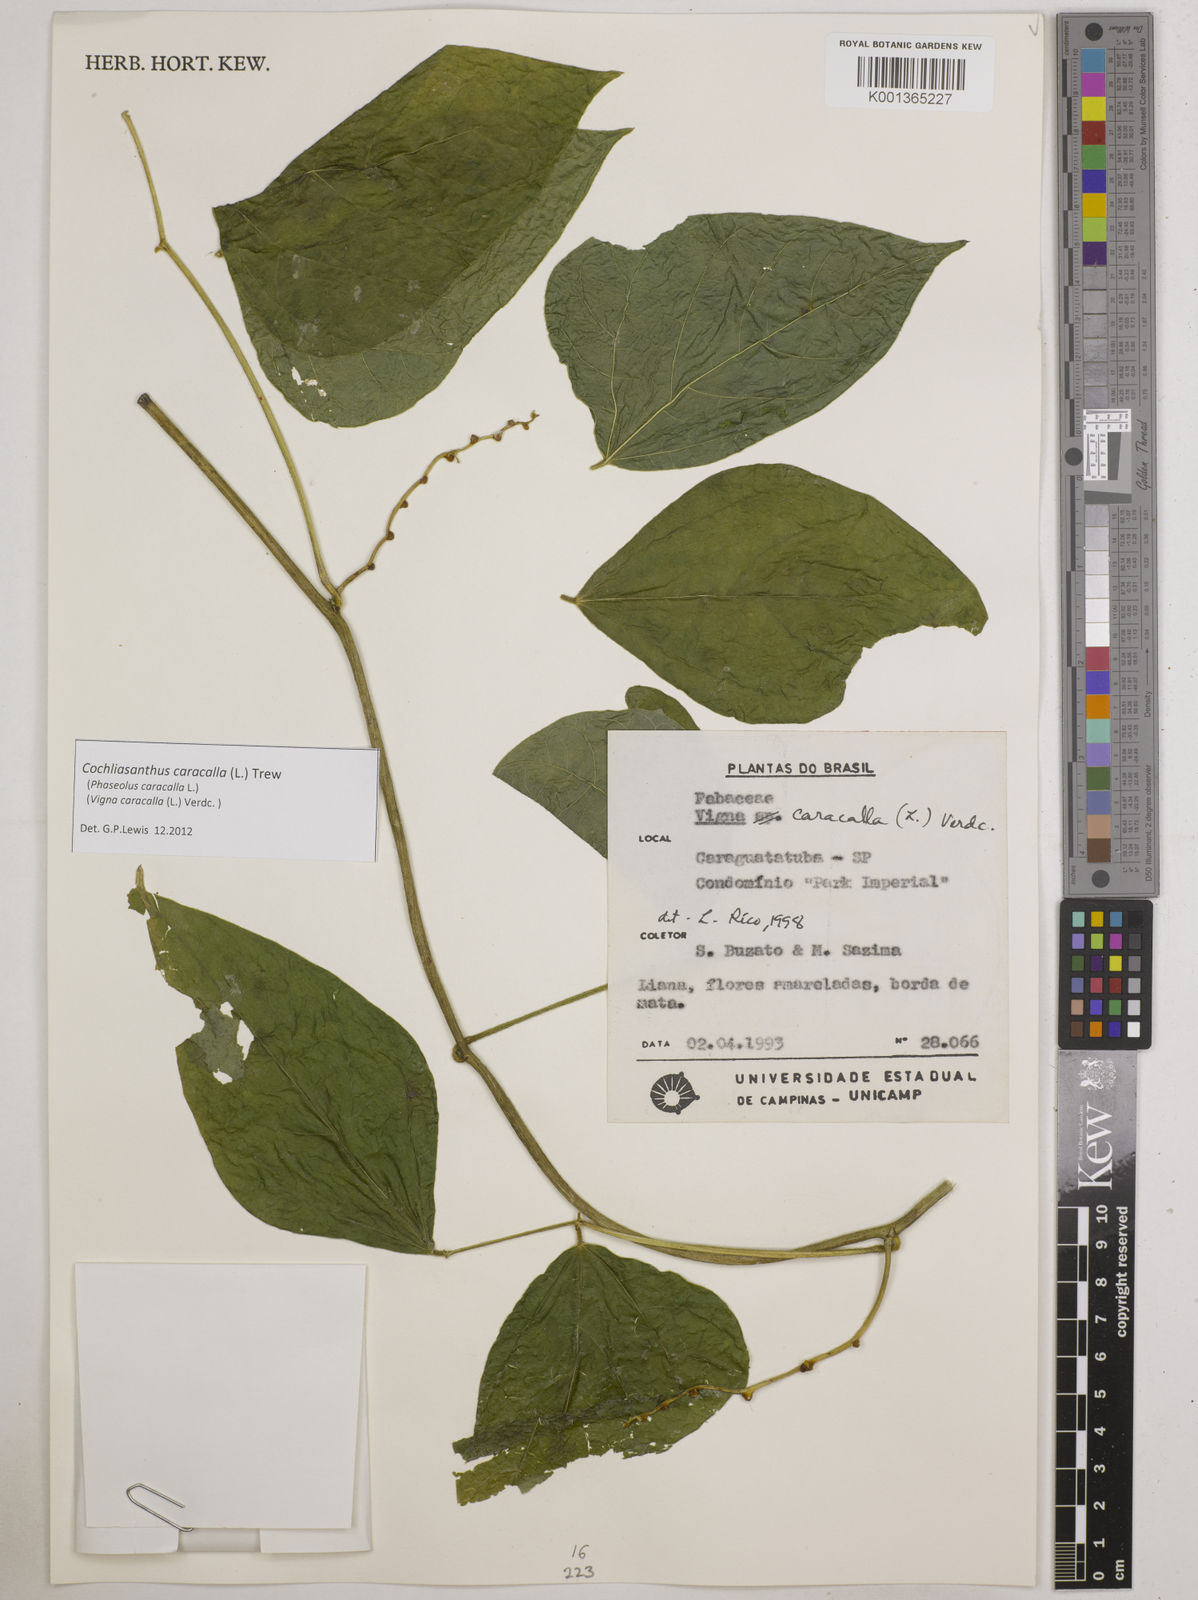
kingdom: Plantae
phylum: Tracheophyta
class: Magnoliopsida
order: Fabales
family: Fabaceae
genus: Cochliasanthus
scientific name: Cochliasanthus caracalla
